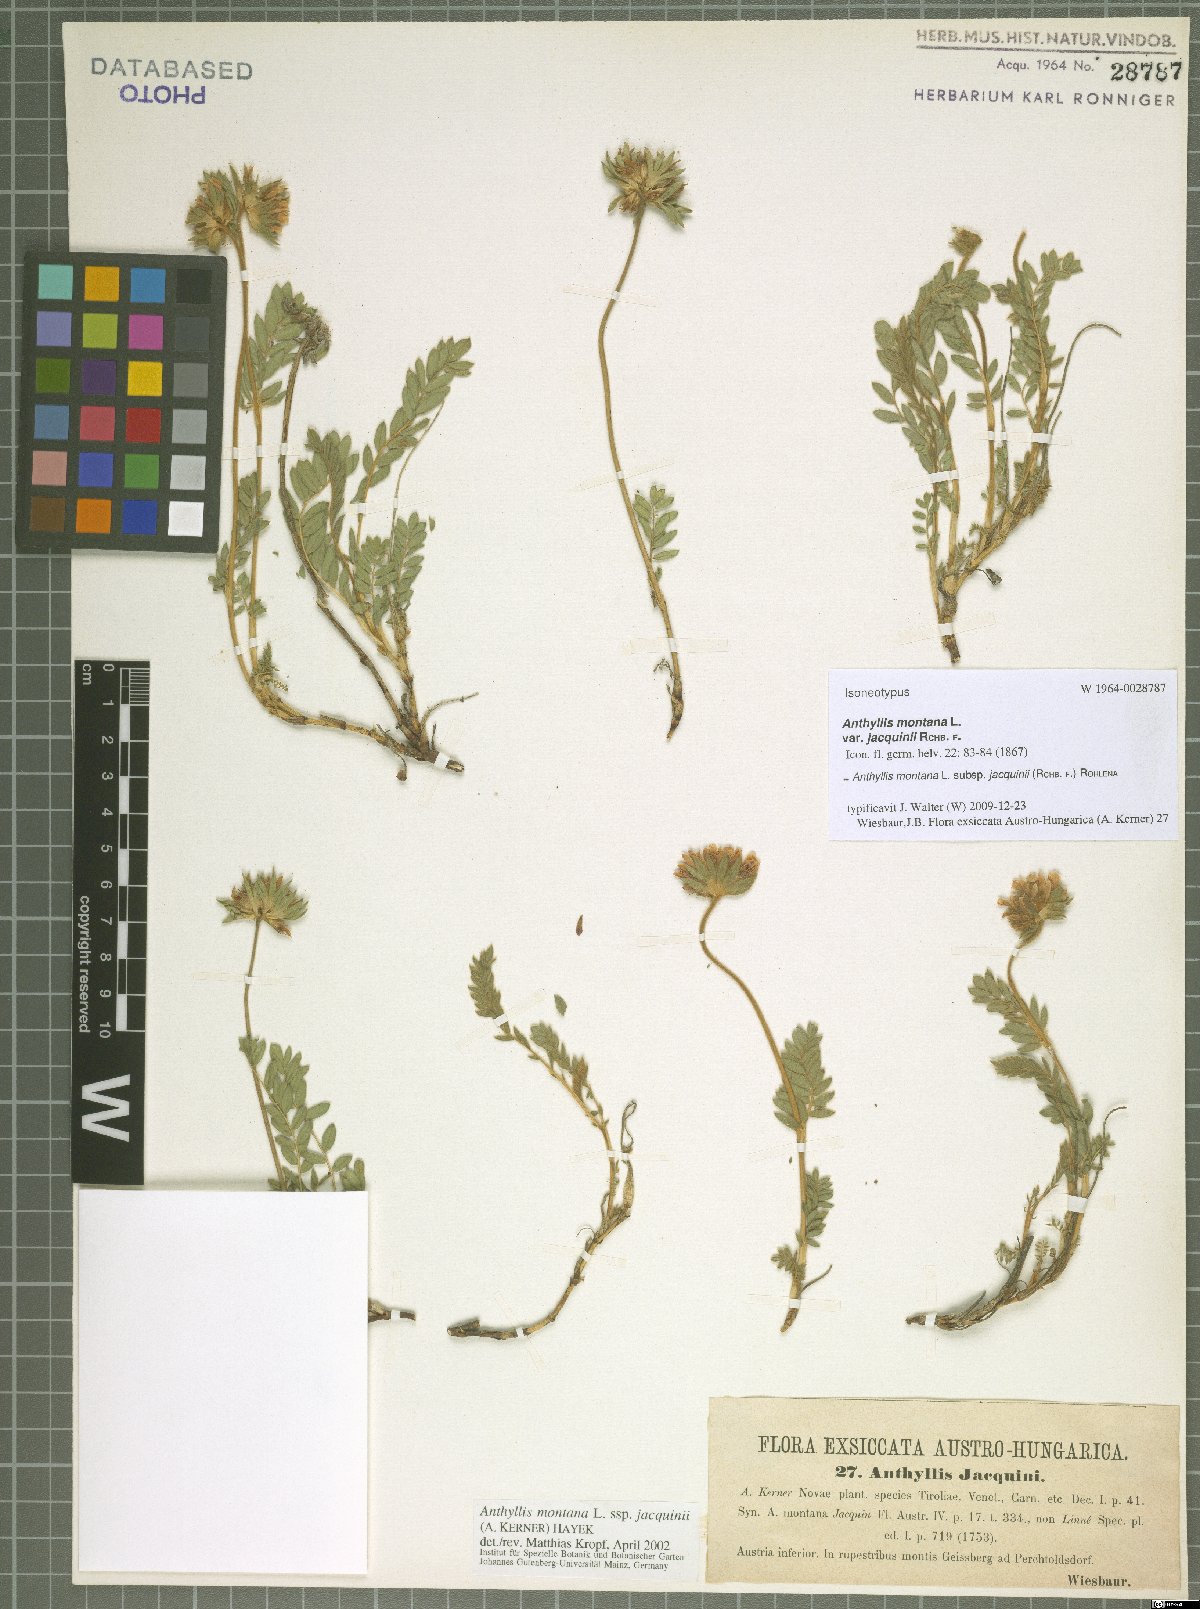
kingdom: Plantae
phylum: Tracheophyta
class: Magnoliopsida
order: Fabales
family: Fabaceae
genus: Anthyllis
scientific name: Anthyllis montana
